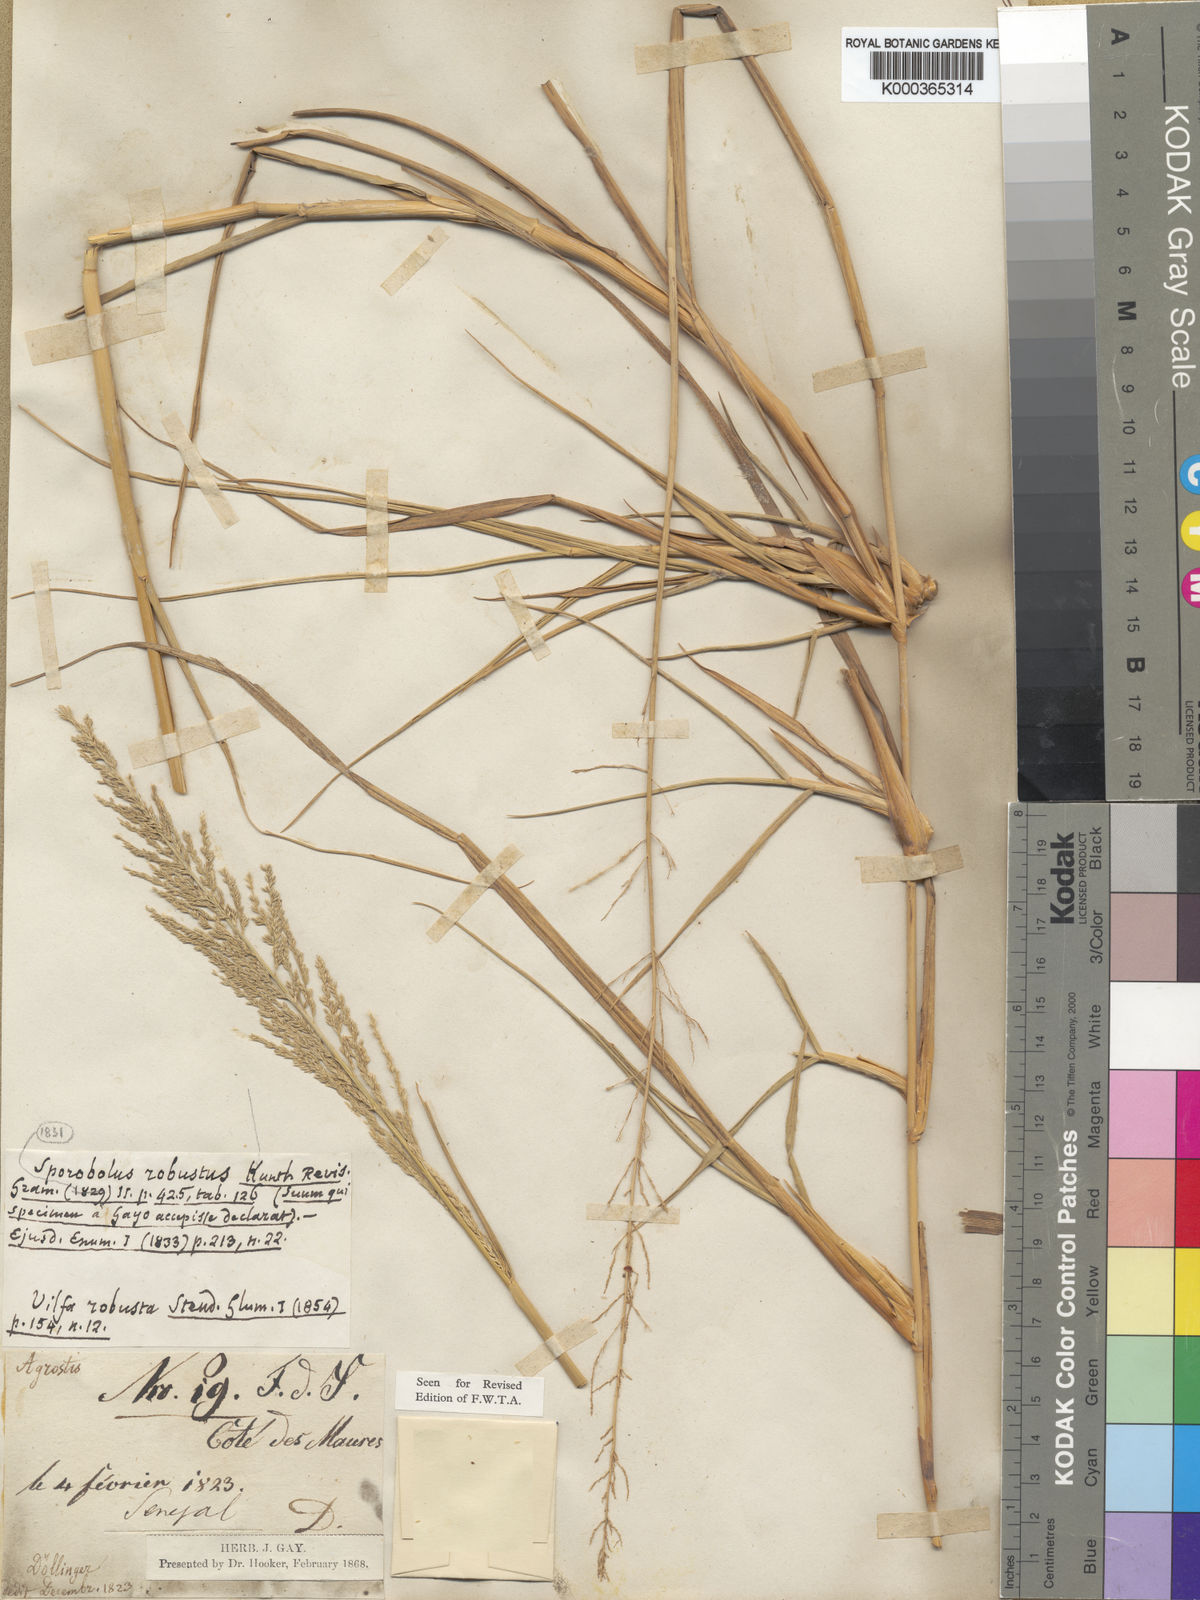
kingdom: Plantae
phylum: Tracheophyta
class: Liliopsida
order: Poales
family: Poaceae
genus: Sporobolus
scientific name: Sporobolus robustus
